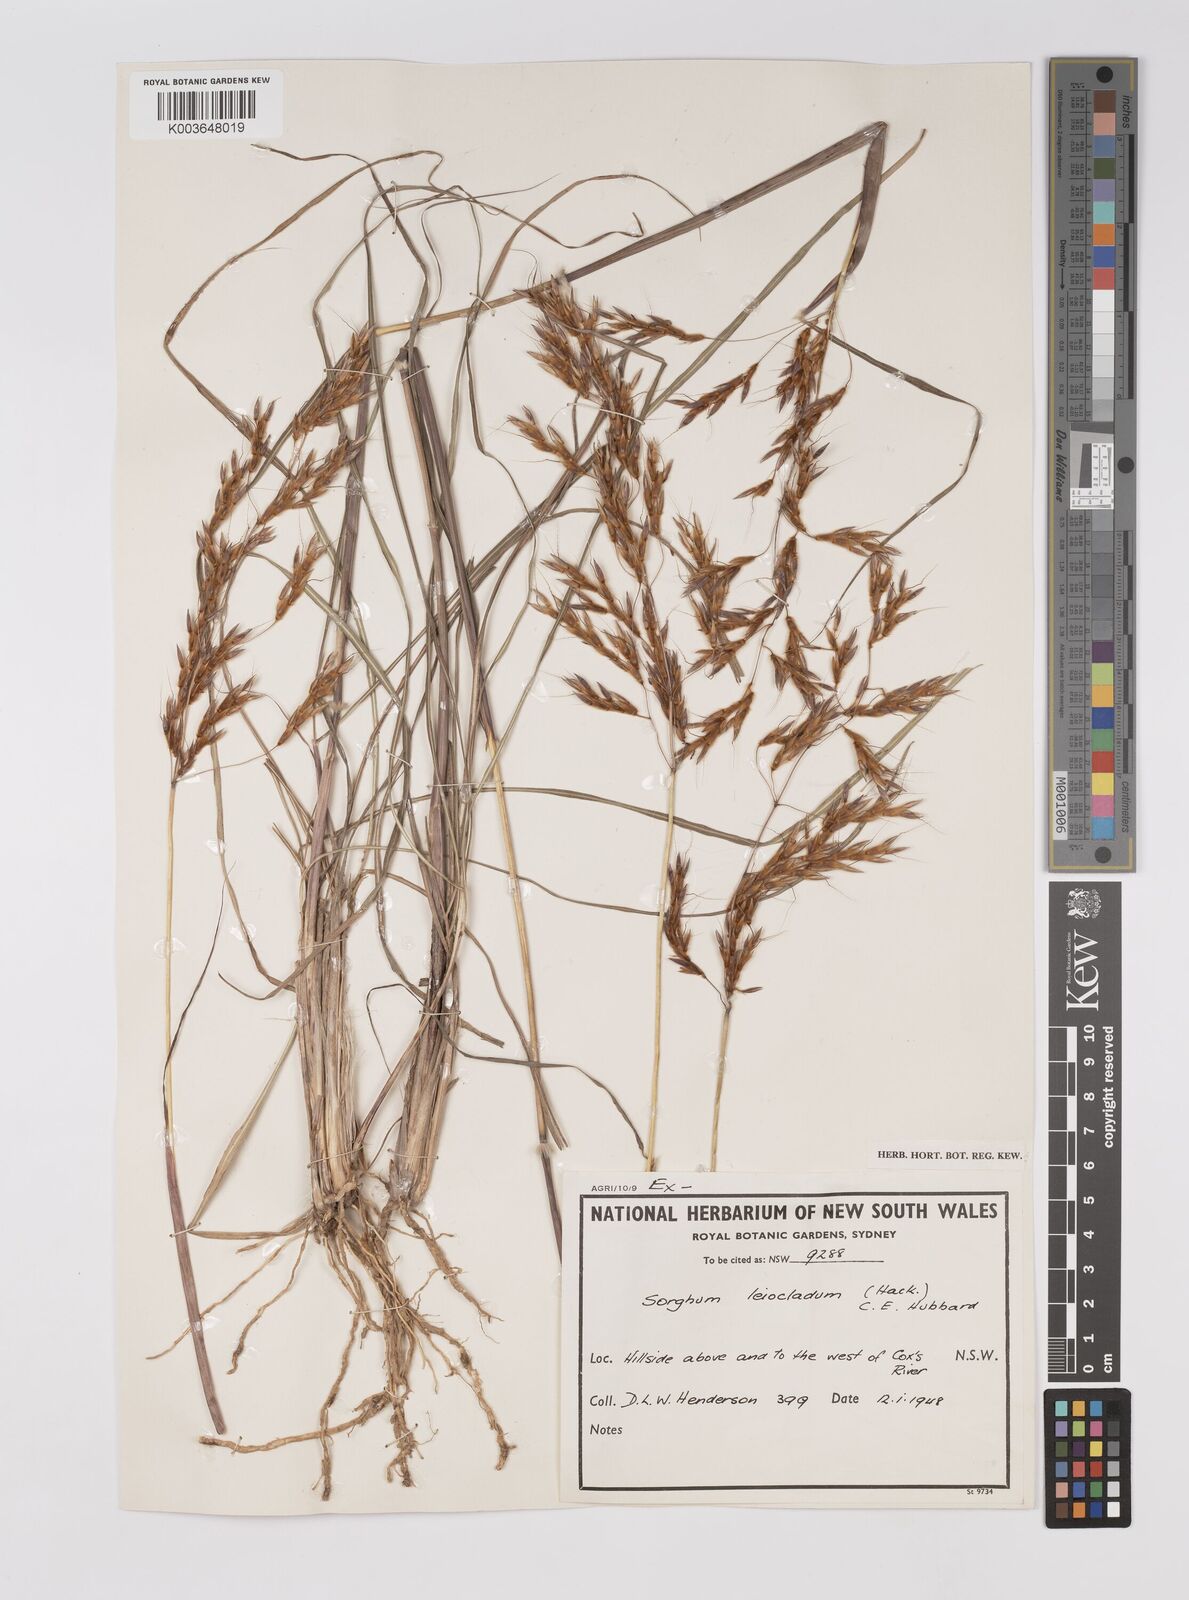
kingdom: Plantae
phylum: Tracheophyta
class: Liliopsida
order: Poales
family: Poaceae
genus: Sarga
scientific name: Sarga leioclada
